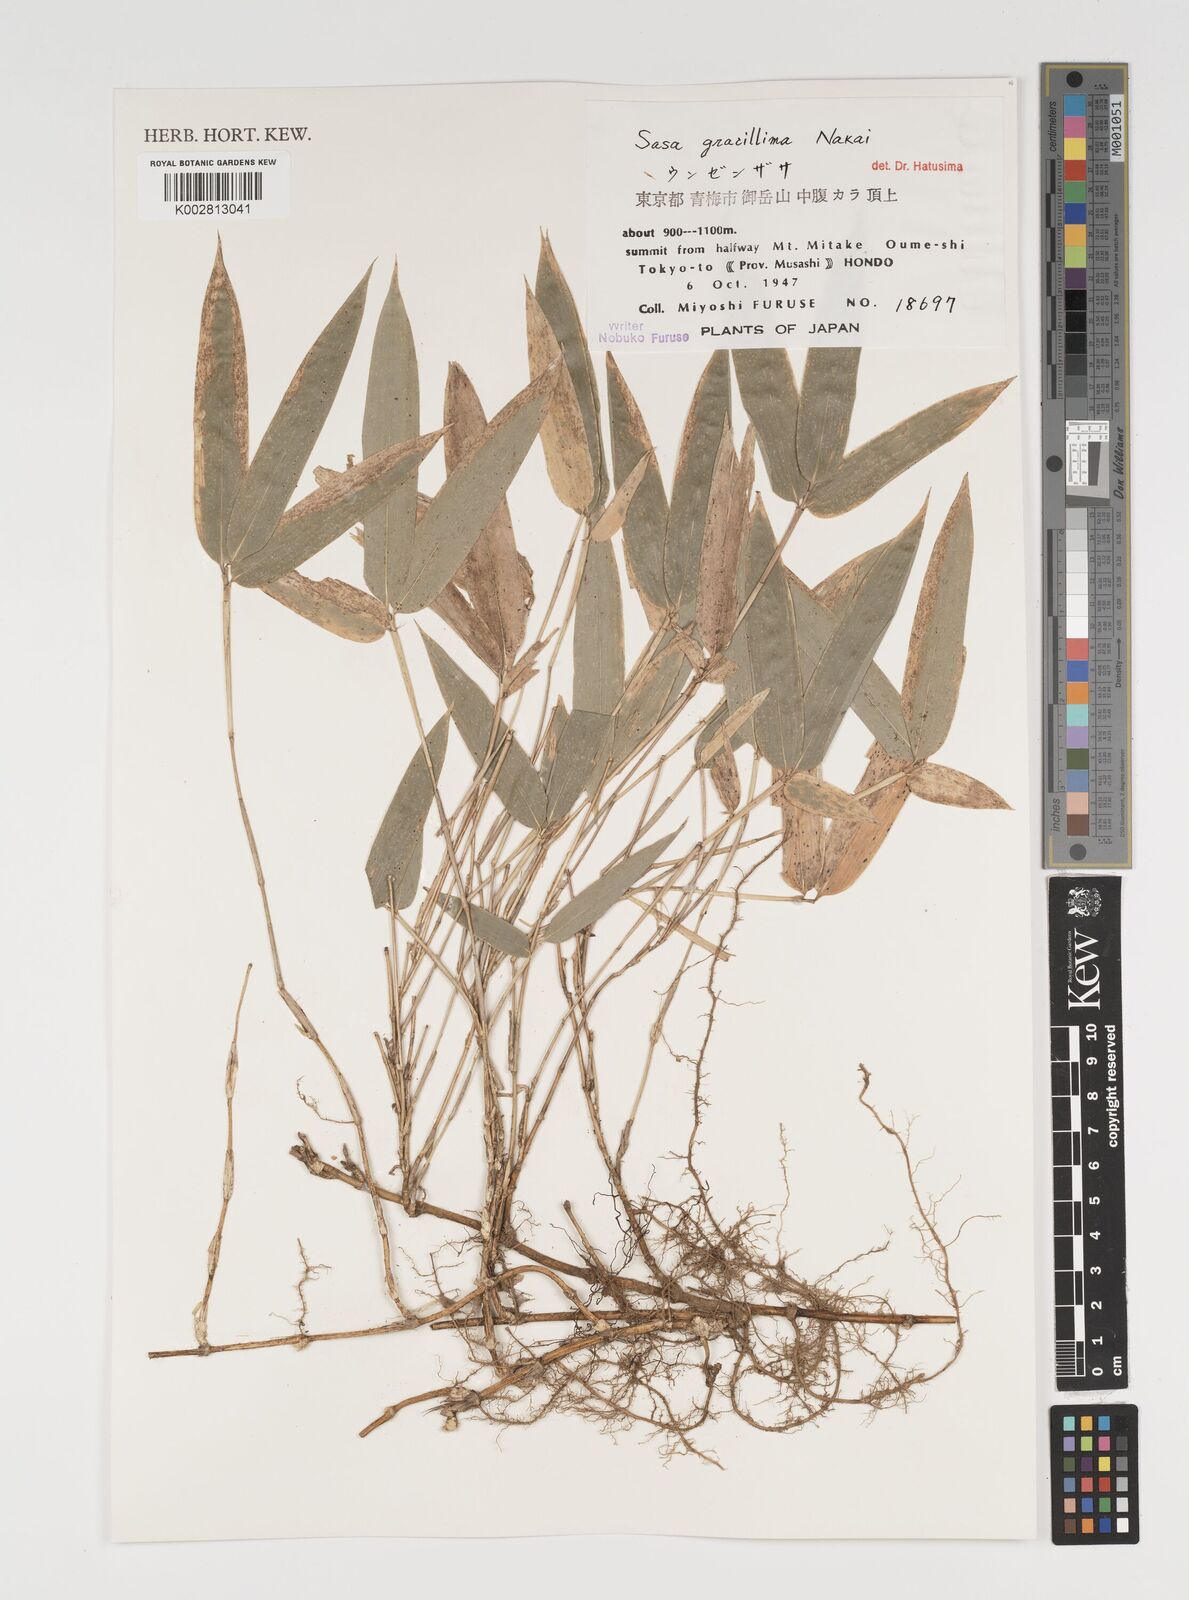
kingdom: Plantae
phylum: Tracheophyta
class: Liliopsida
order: Poales
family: Poaceae
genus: Sasa
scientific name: Sasa gracillima
